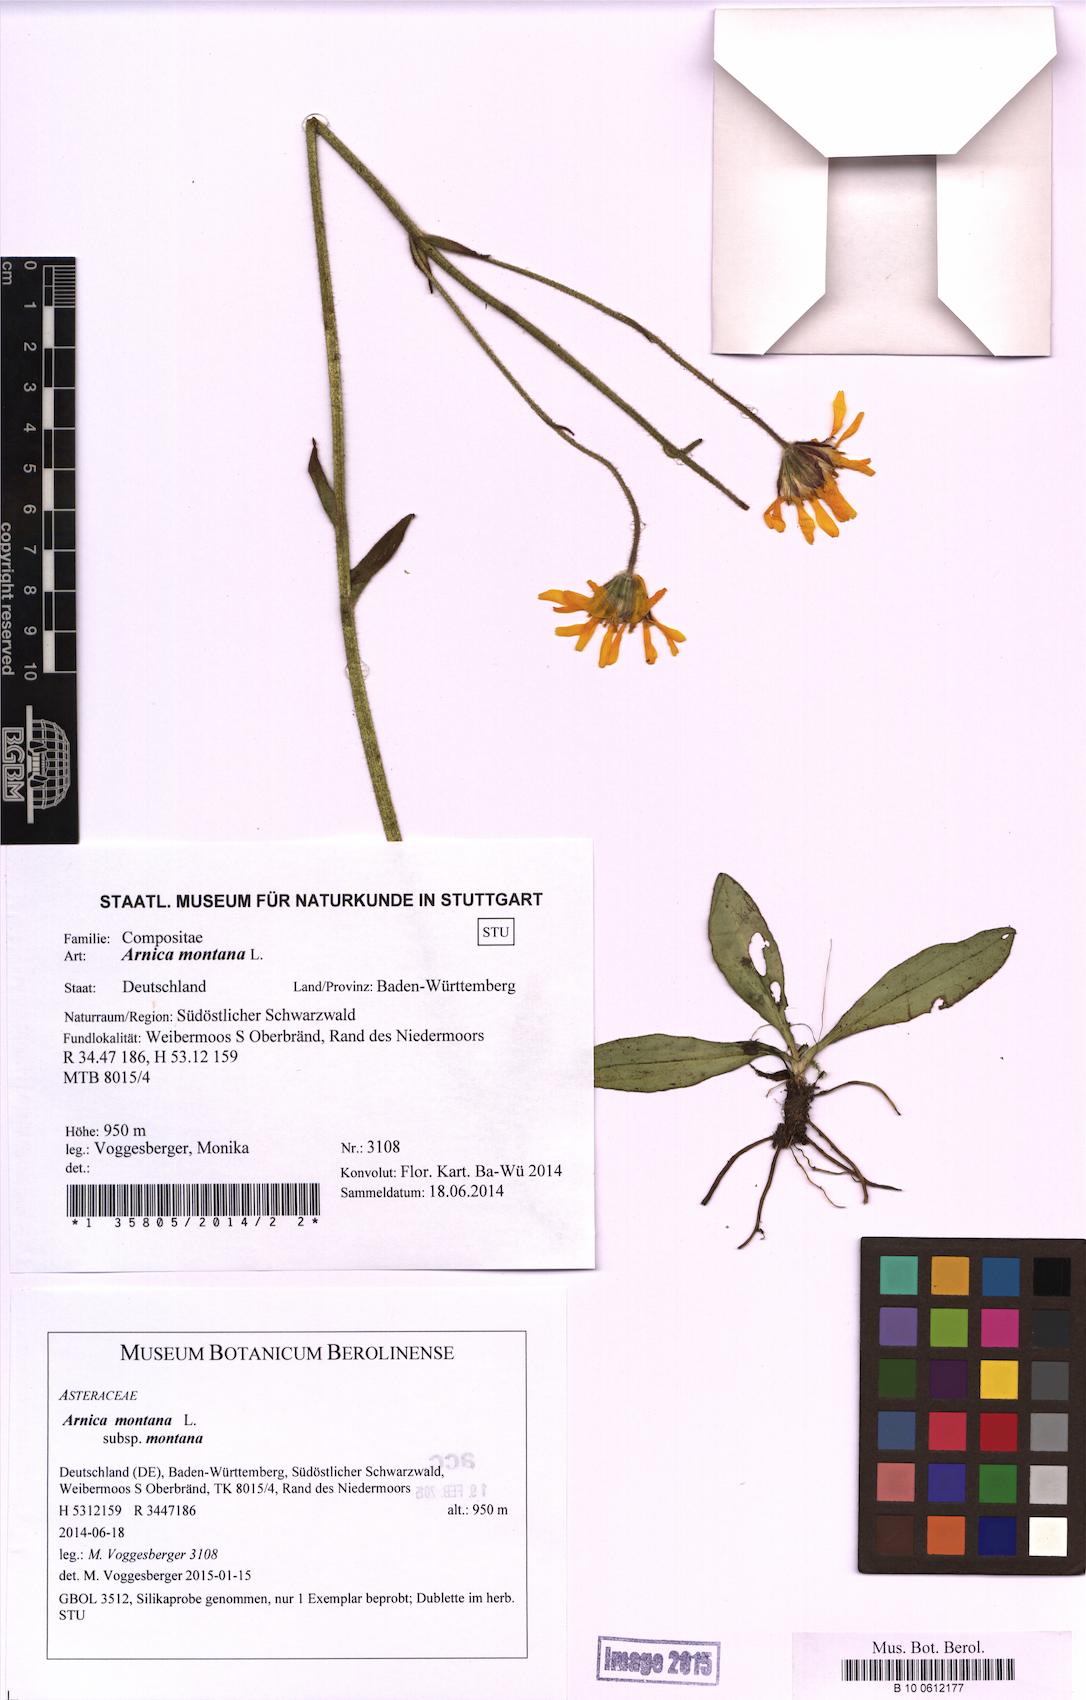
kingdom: Plantae
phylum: Tracheophyta
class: Magnoliopsida
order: Asterales
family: Asteraceae
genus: Arnica
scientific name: Arnica montana
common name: Leopard's bane
